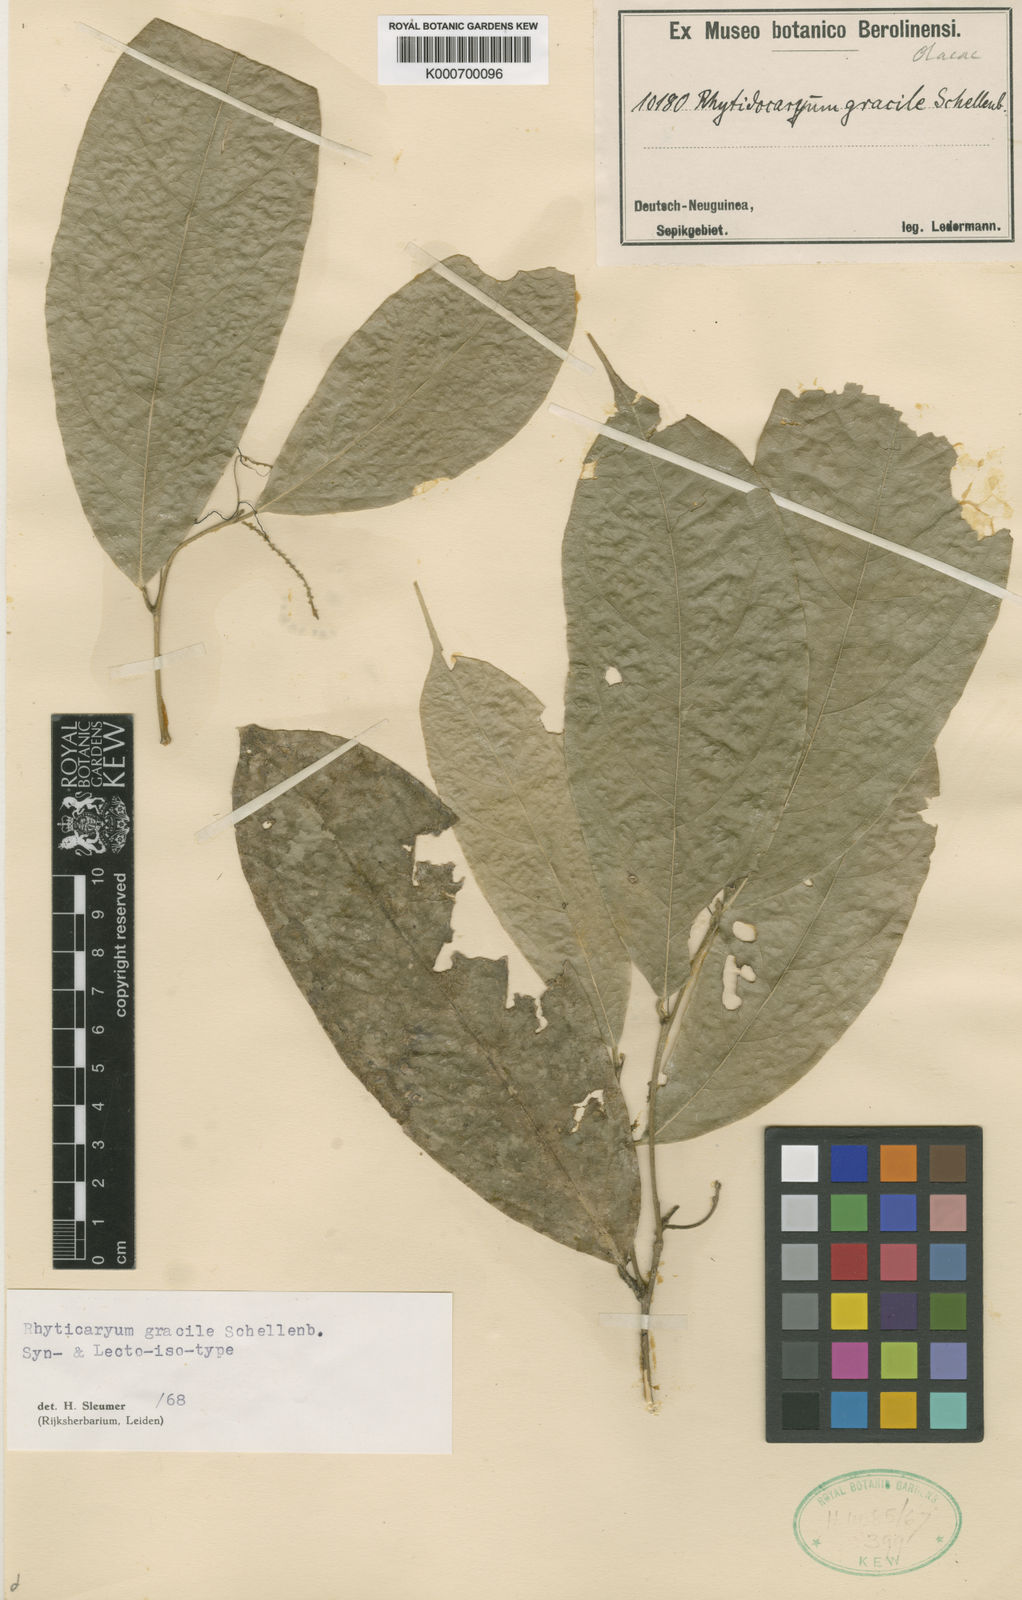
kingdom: Plantae
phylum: Tracheophyta
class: Magnoliopsida
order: Icacinales
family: Icacinaceae
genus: Ryticaryum
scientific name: Ryticaryum
